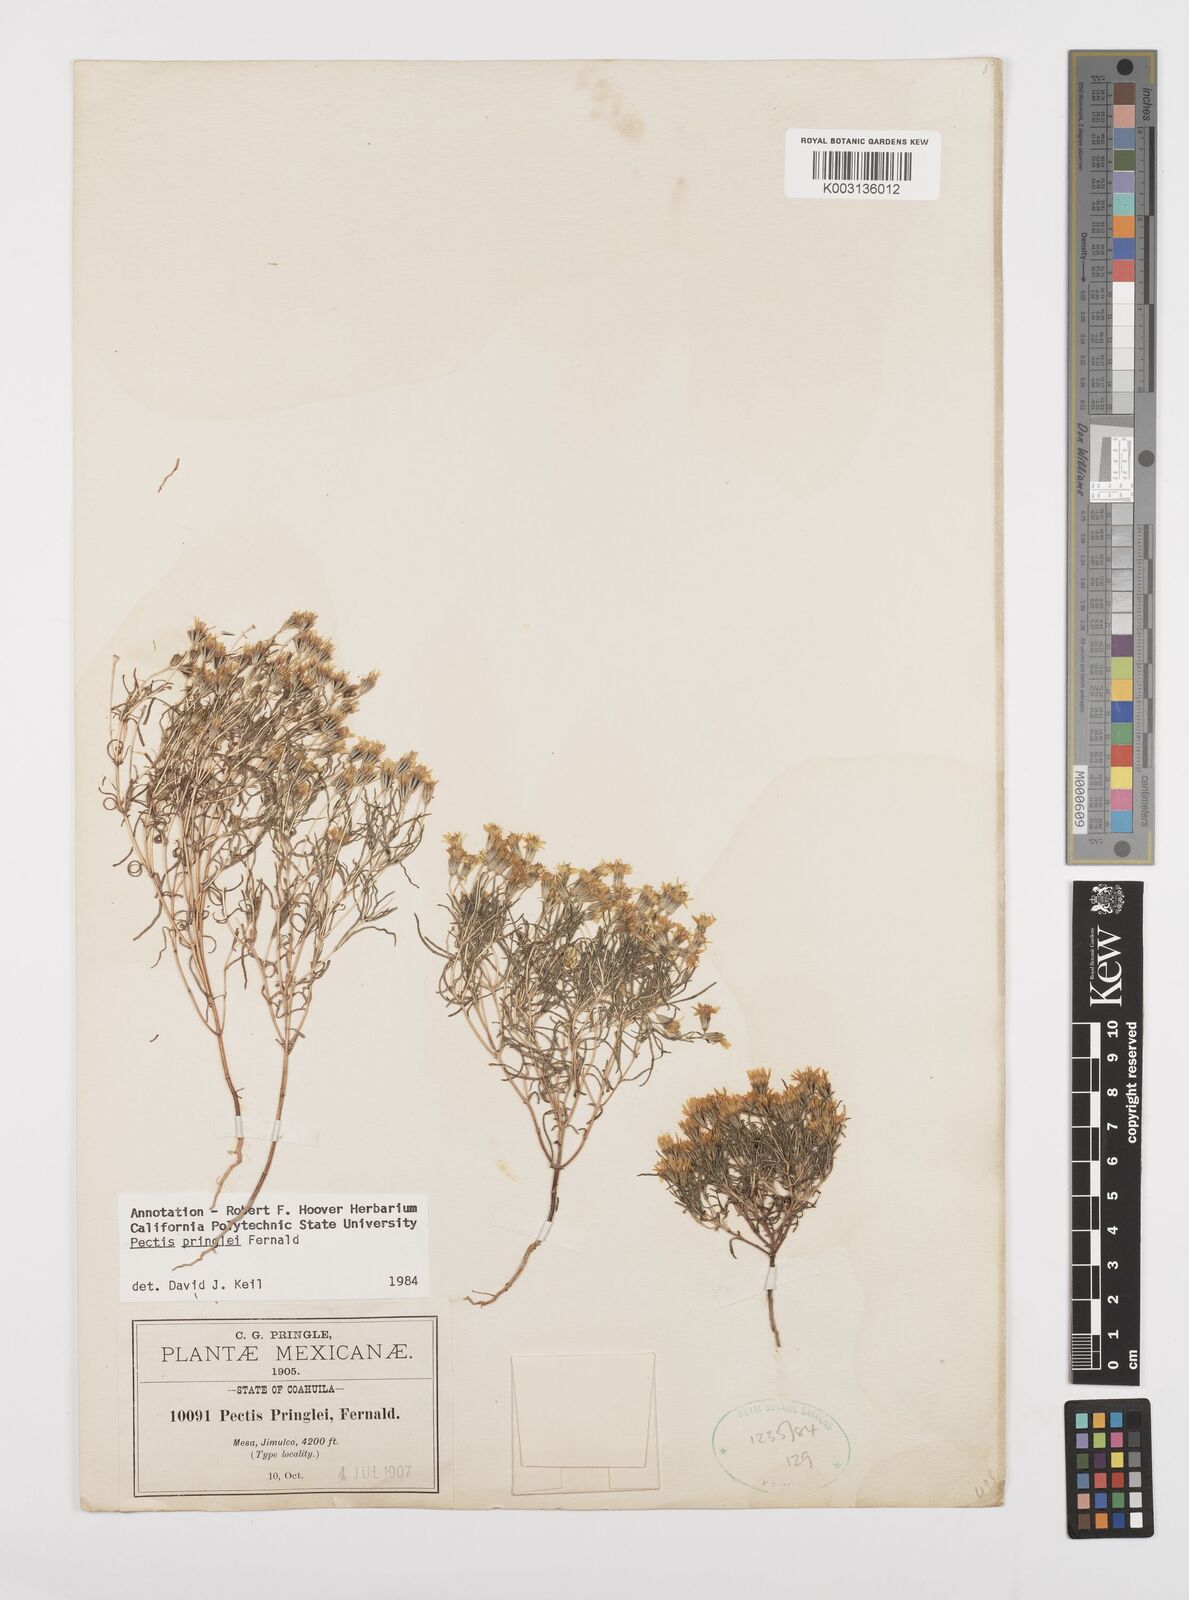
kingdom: Plantae
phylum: Tracheophyta
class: Magnoliopsida
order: Asterales
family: Asteraceae
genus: Pectis
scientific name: Pectis pringlei
